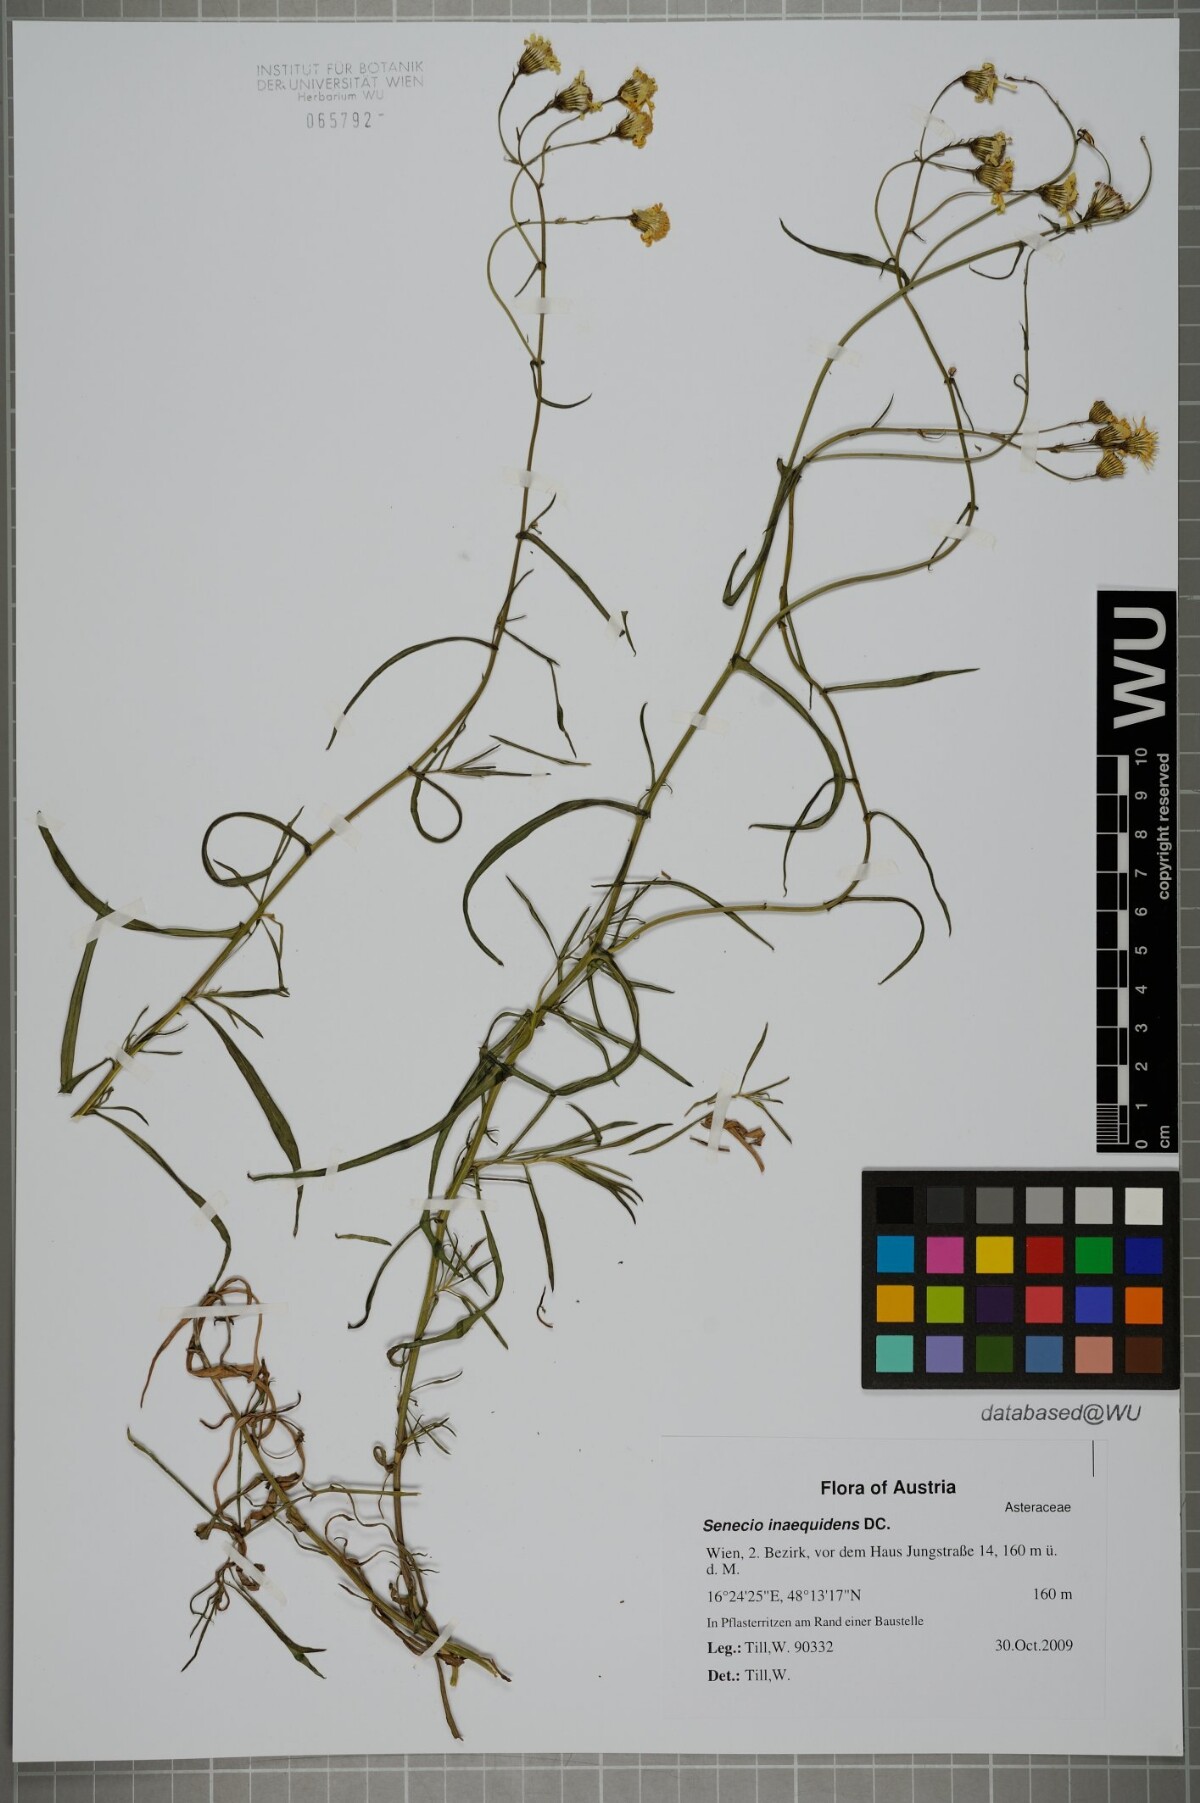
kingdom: Plantae
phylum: Tracheophyta
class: Magnoliopsida
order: Asterales
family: Asteraceae
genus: Senecio
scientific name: Senecio inaequidens
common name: Narrow-leaved ragwort
